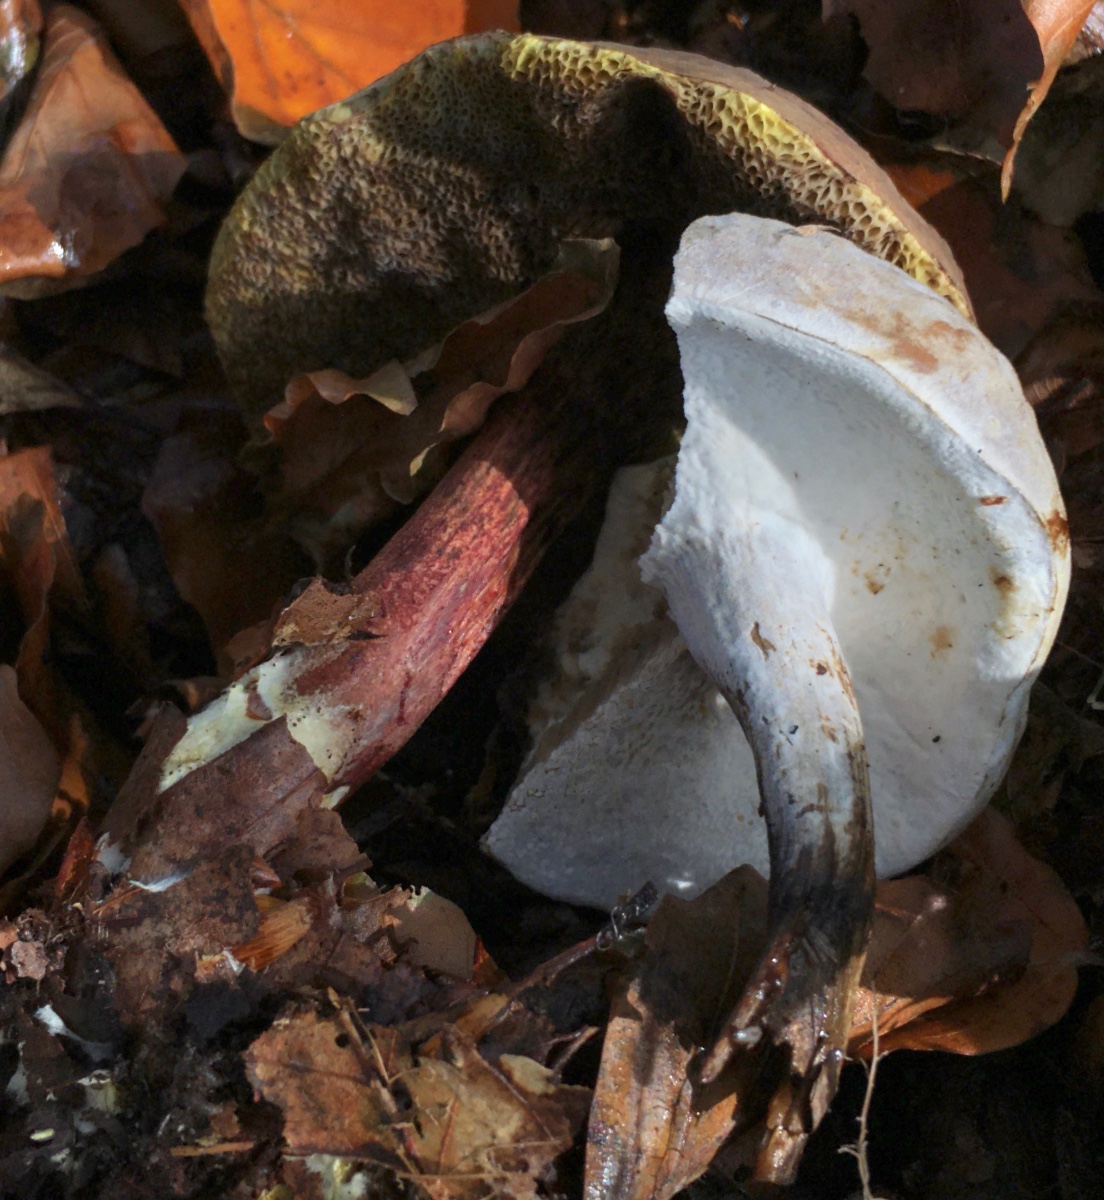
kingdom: Fungi
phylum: Ascomycota
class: Sordariomycetes
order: Hypocreales
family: Hypocreaceae
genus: Hypomyces
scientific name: Hypomyces microspermus
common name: dværgrørhat-snylteskorpe
